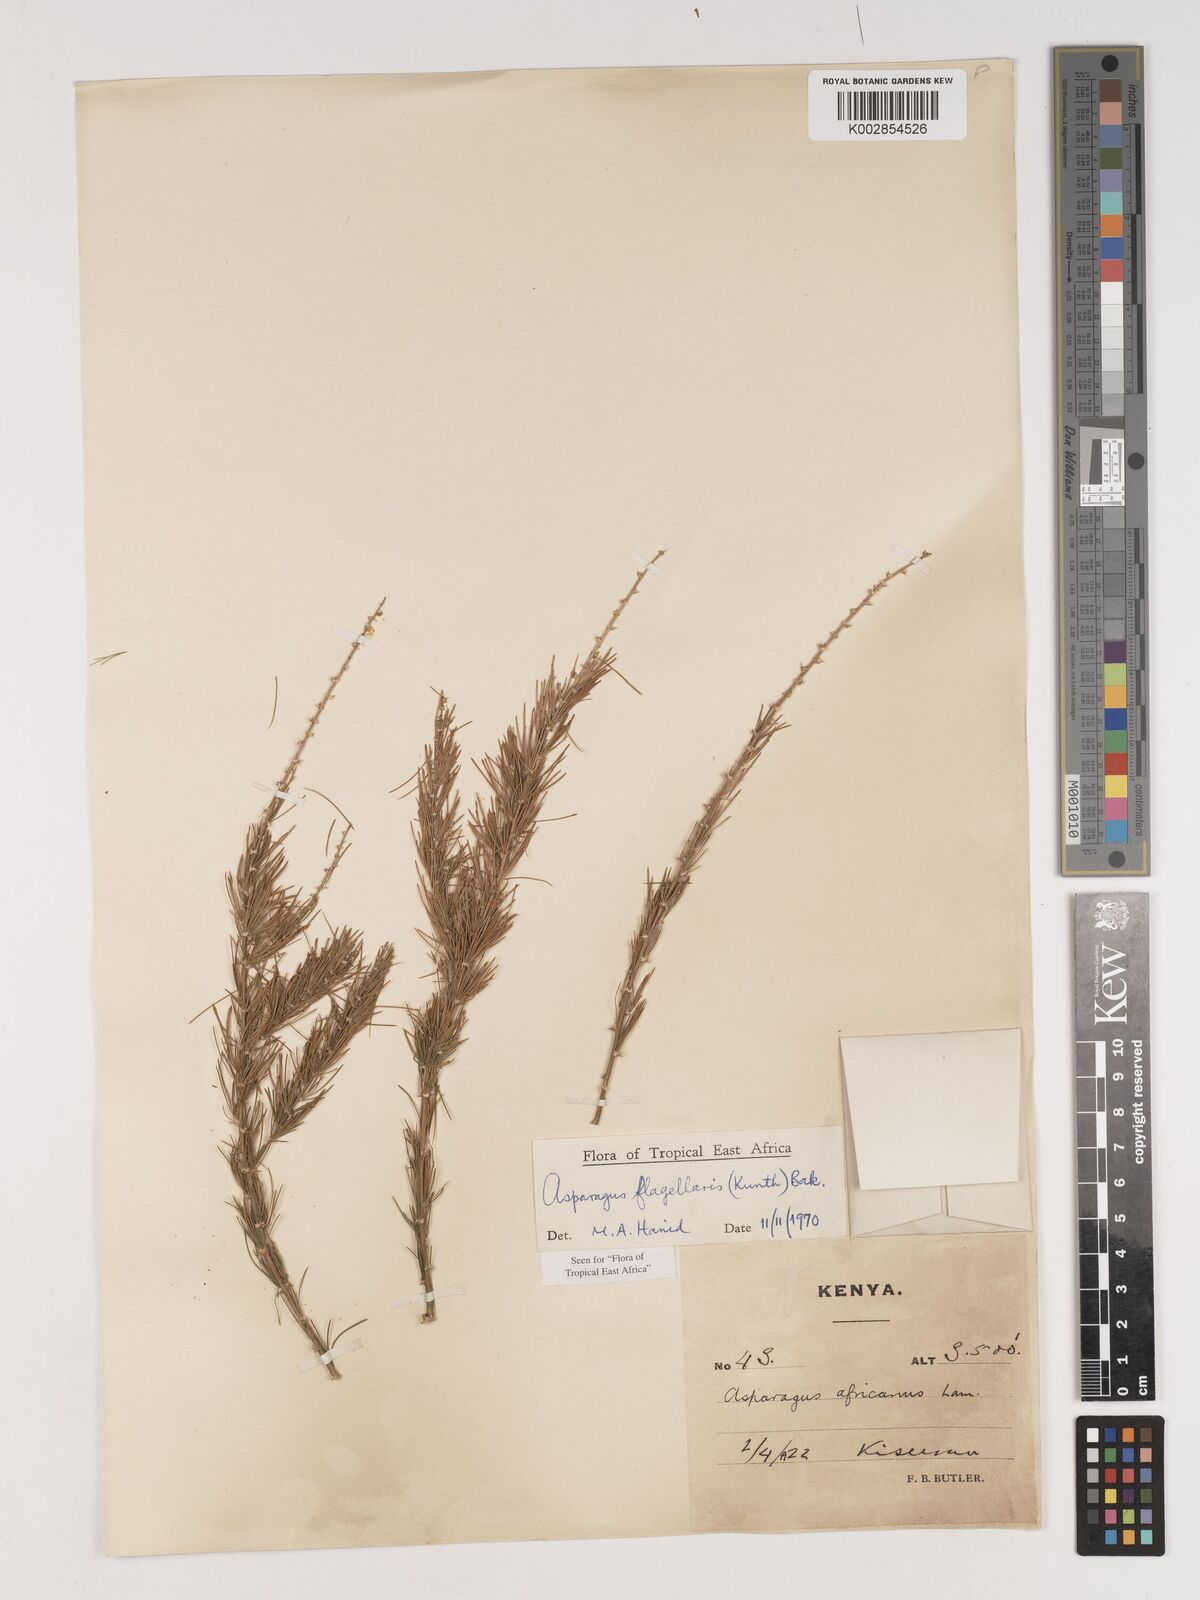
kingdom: Plantae
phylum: Tracheophyta
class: Liliopsida
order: Asparagales
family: Asparagaceae
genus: Asparagus
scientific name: Asparagus flagellaris
